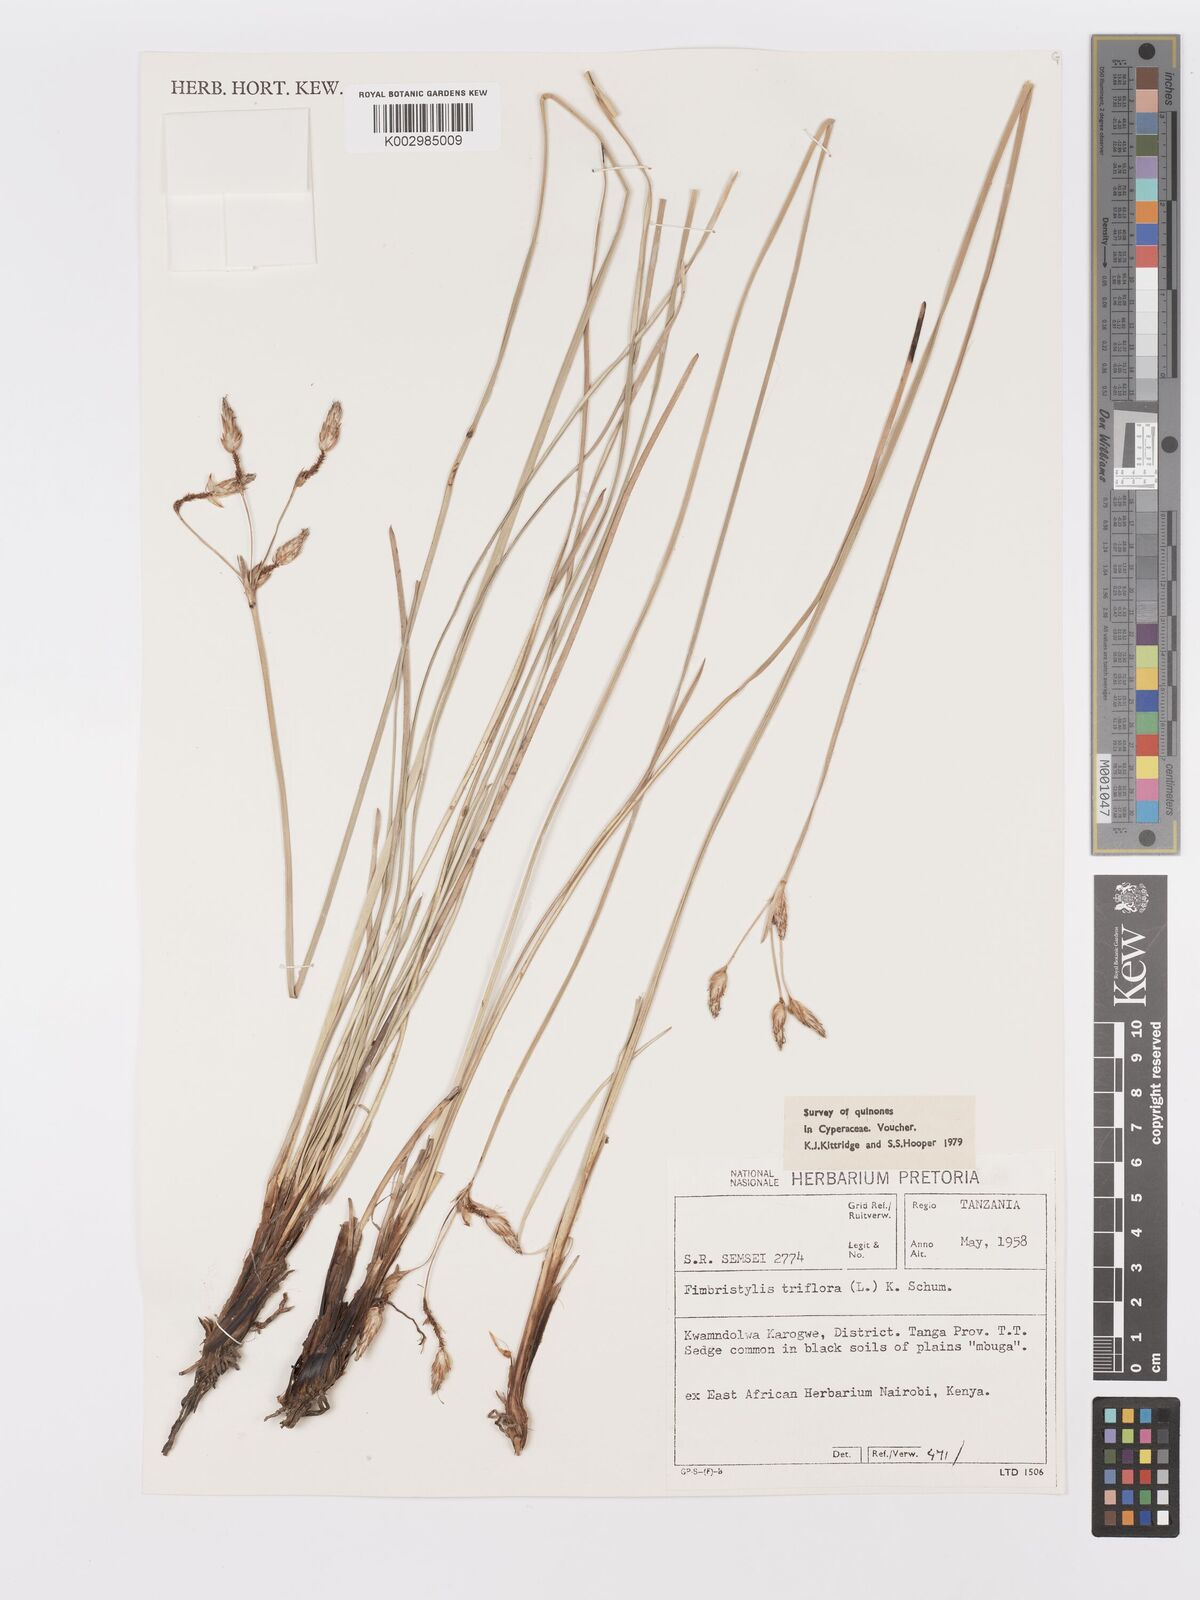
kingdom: Plantae
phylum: Tracheophyta
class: Liliopsida
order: Poales
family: Cyperaceae
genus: Abildgaardia
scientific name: Abildgaardia triflora
